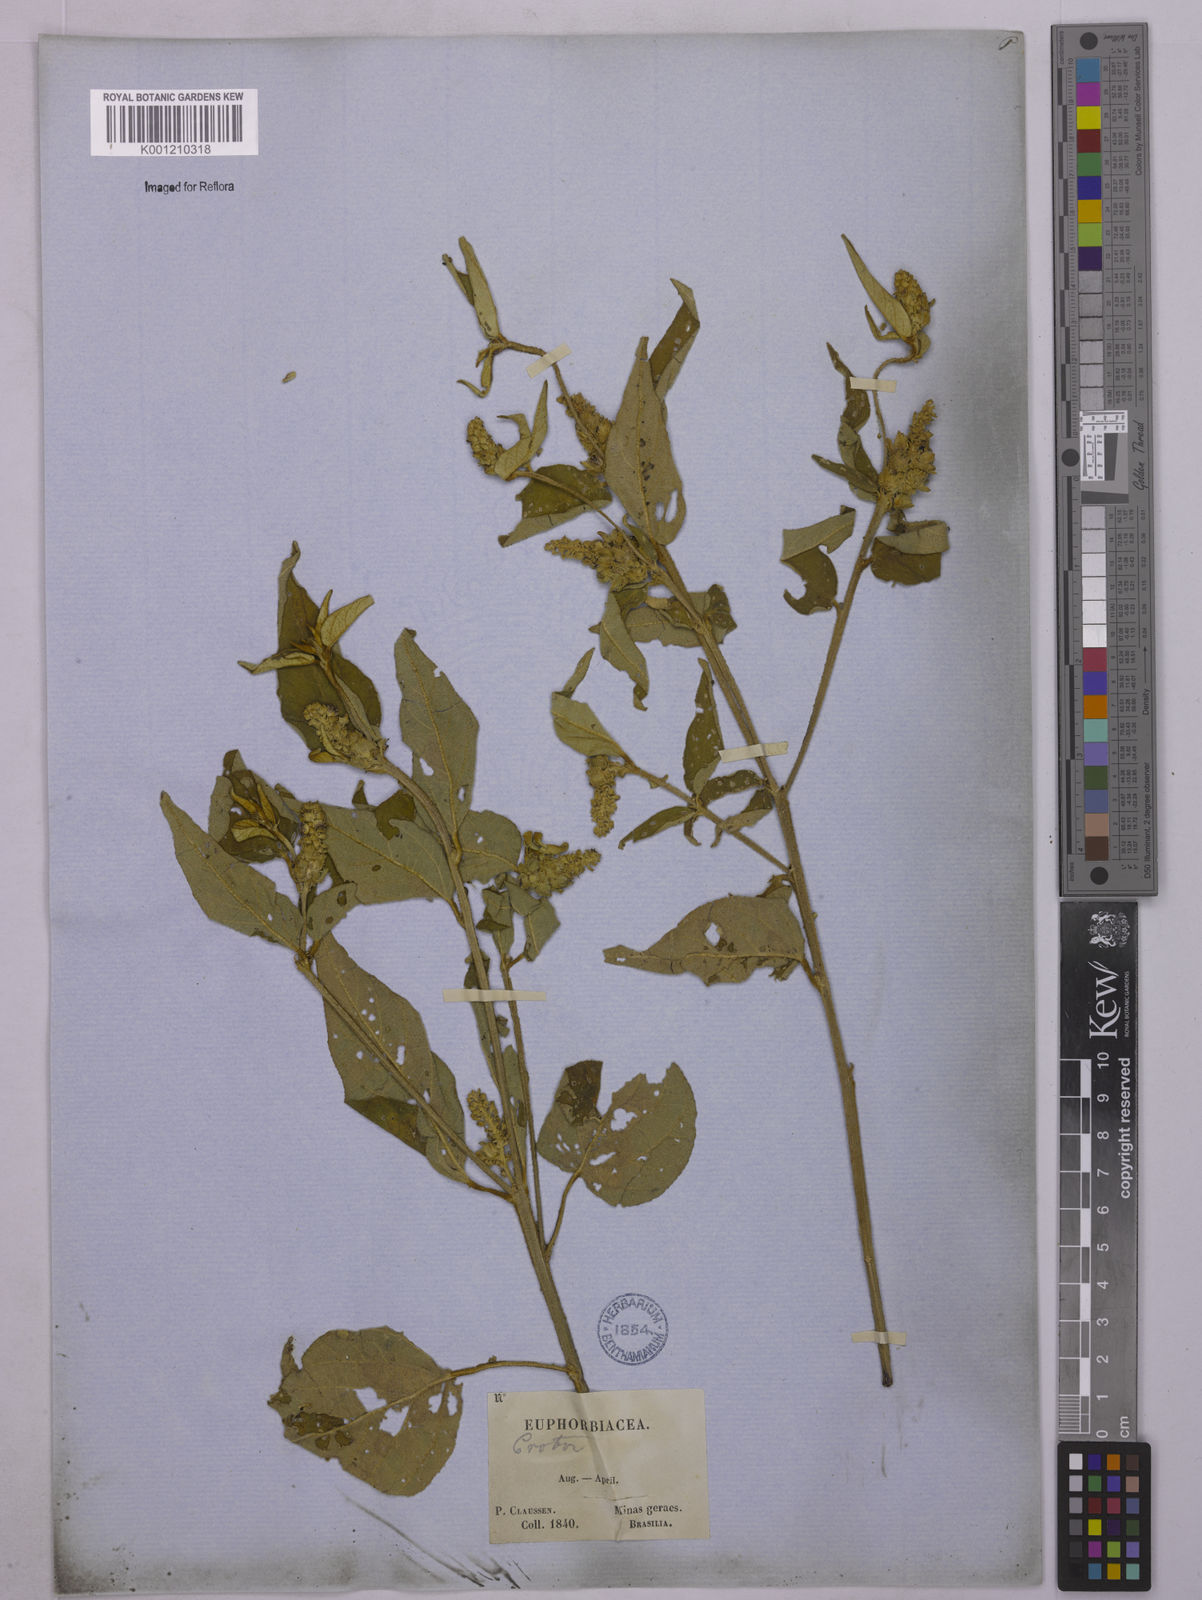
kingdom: Plantae
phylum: Tracheophyta
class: Magnoliopsida
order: Malpighiales
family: Euphorbiaceae
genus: Croton
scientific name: Croton triqueter
